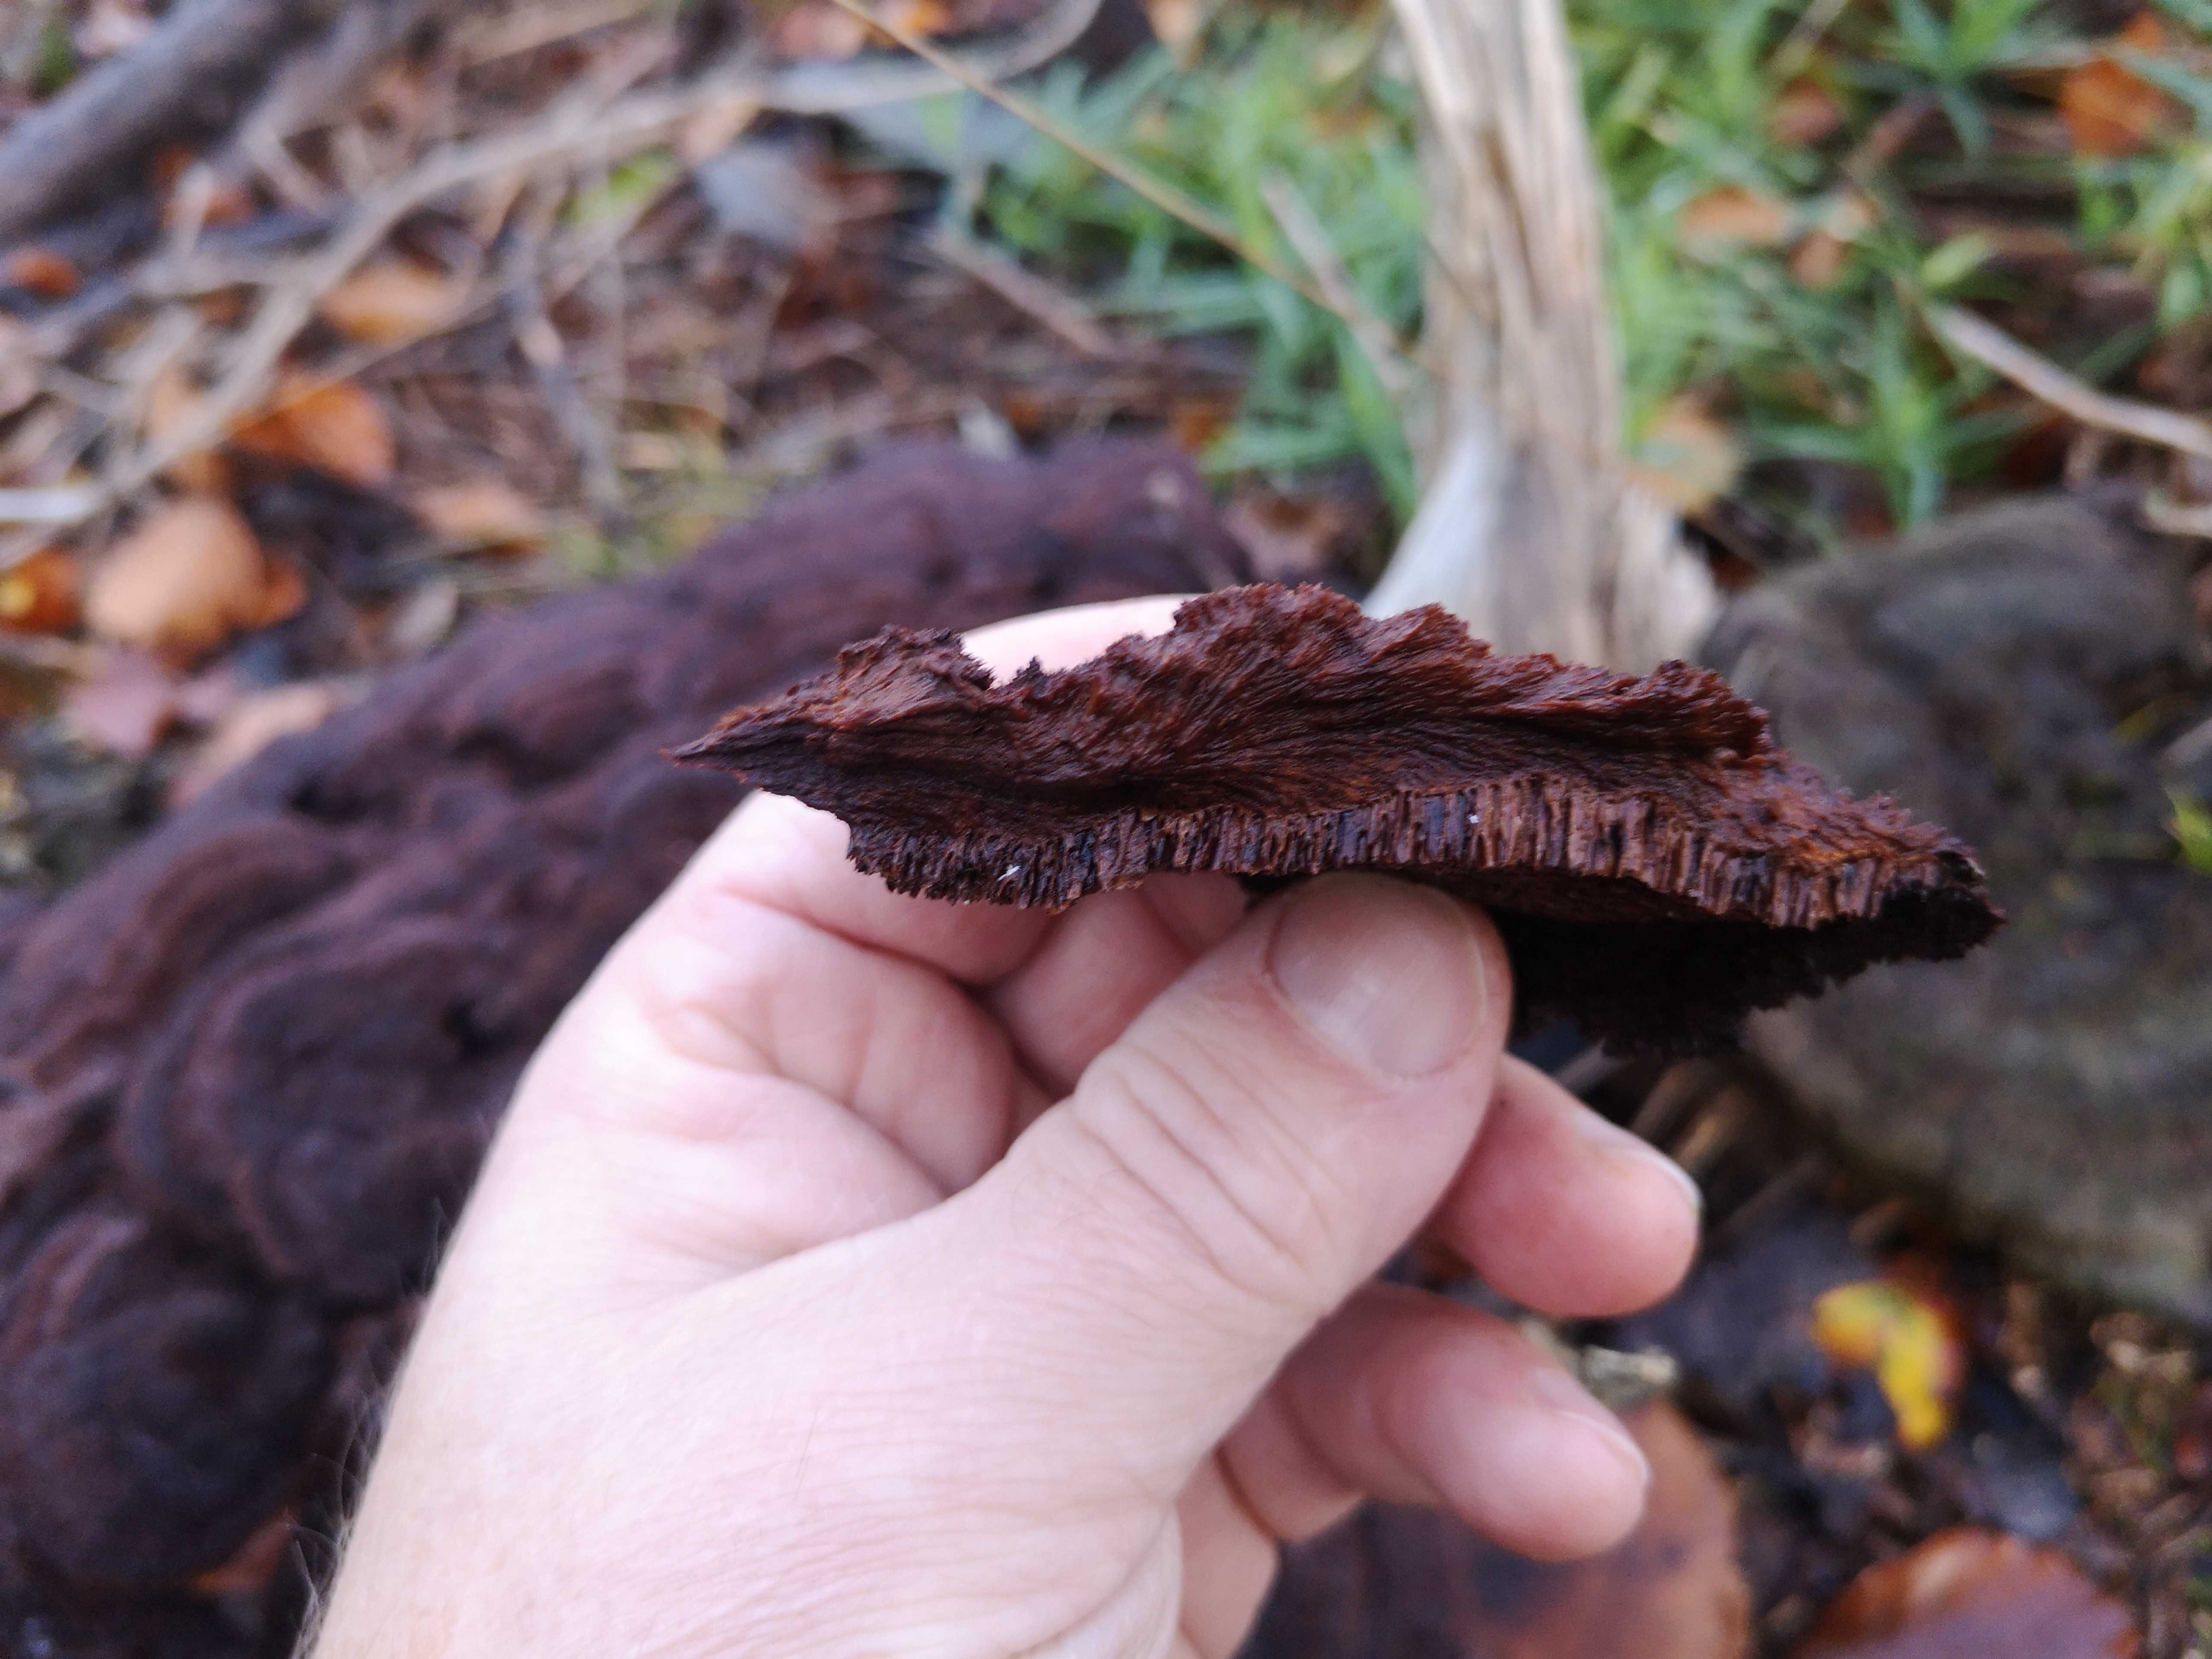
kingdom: Fungi
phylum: Basidiomycota
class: Agaricomycetes
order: Polyporales
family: Laetiporaceae
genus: Phaeolus
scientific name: Phaeolus schweinitzii
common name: brunporesvamp
